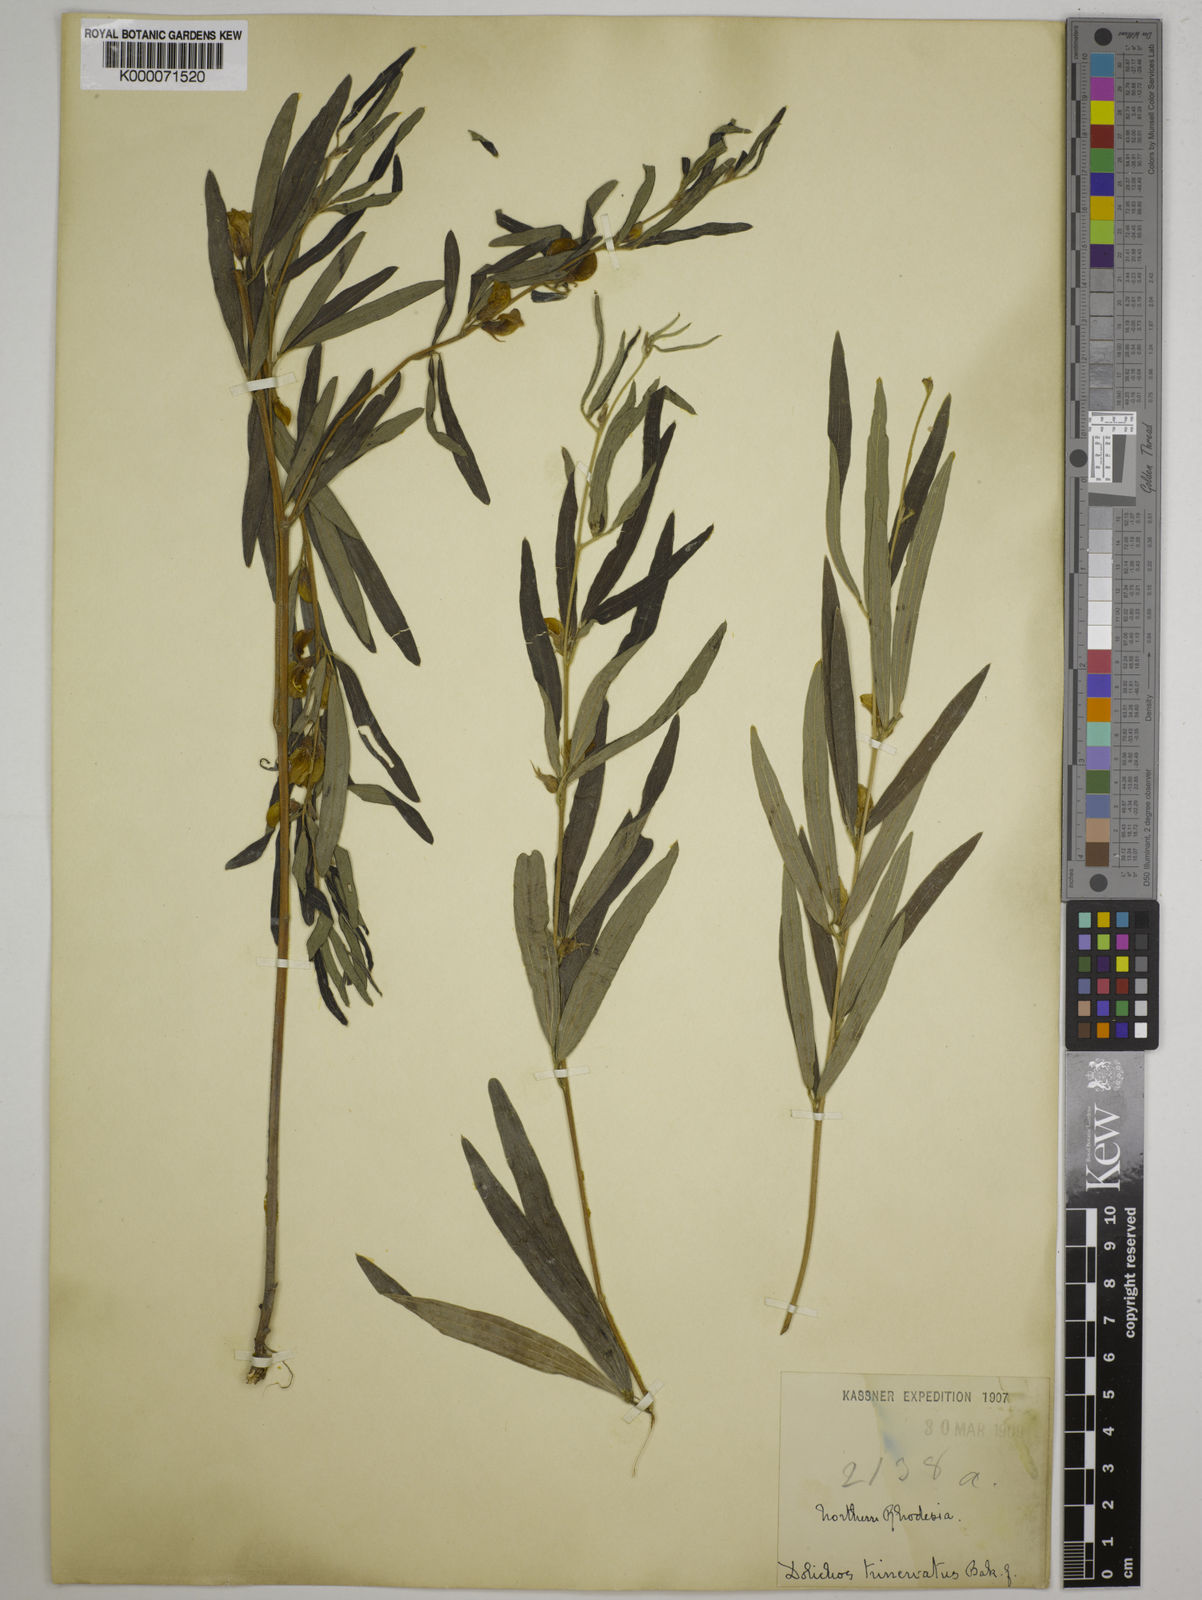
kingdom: Plantae
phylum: Tracheophyta
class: Magnoliopsida
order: Fabales
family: Fabaceae
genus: Dolichos
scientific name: Dolichos trinervatus
